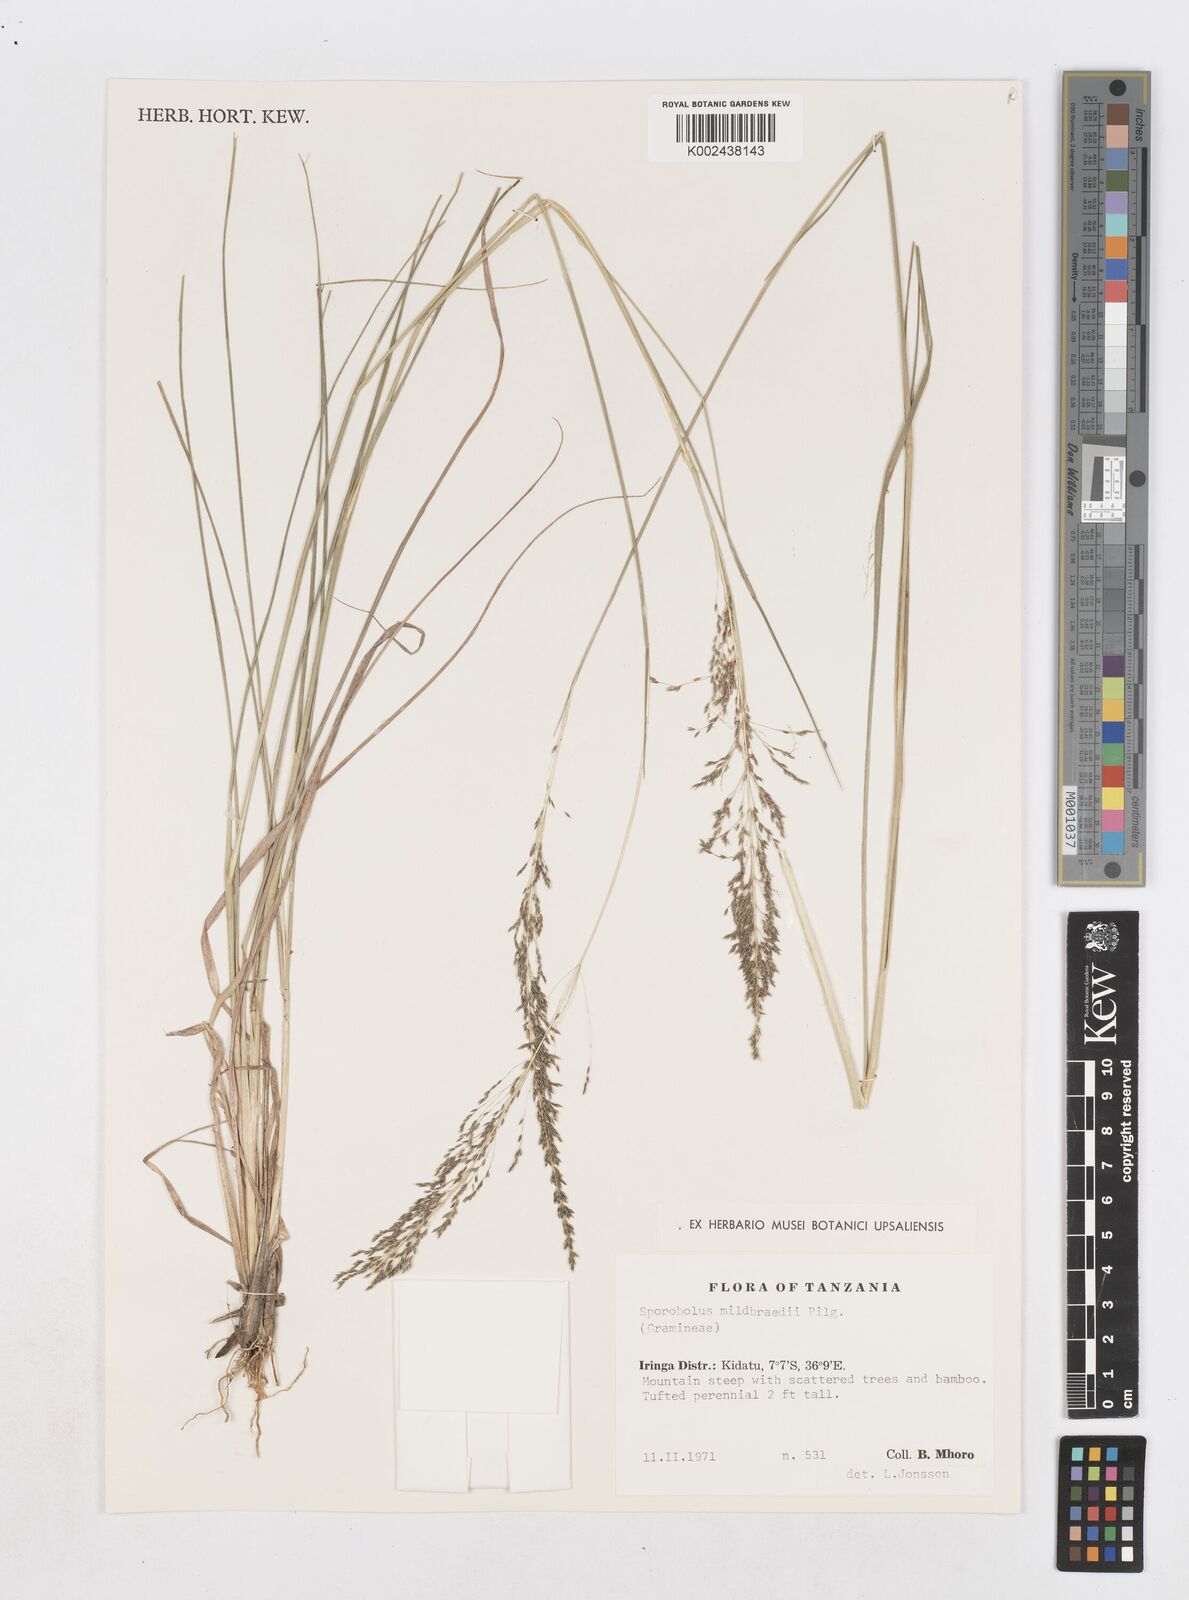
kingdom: Plantae
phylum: Tracheophyta
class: Liliopsida
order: Poales
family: Poaceae
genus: Sporobolus
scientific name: Sporobolus mildbraedii
